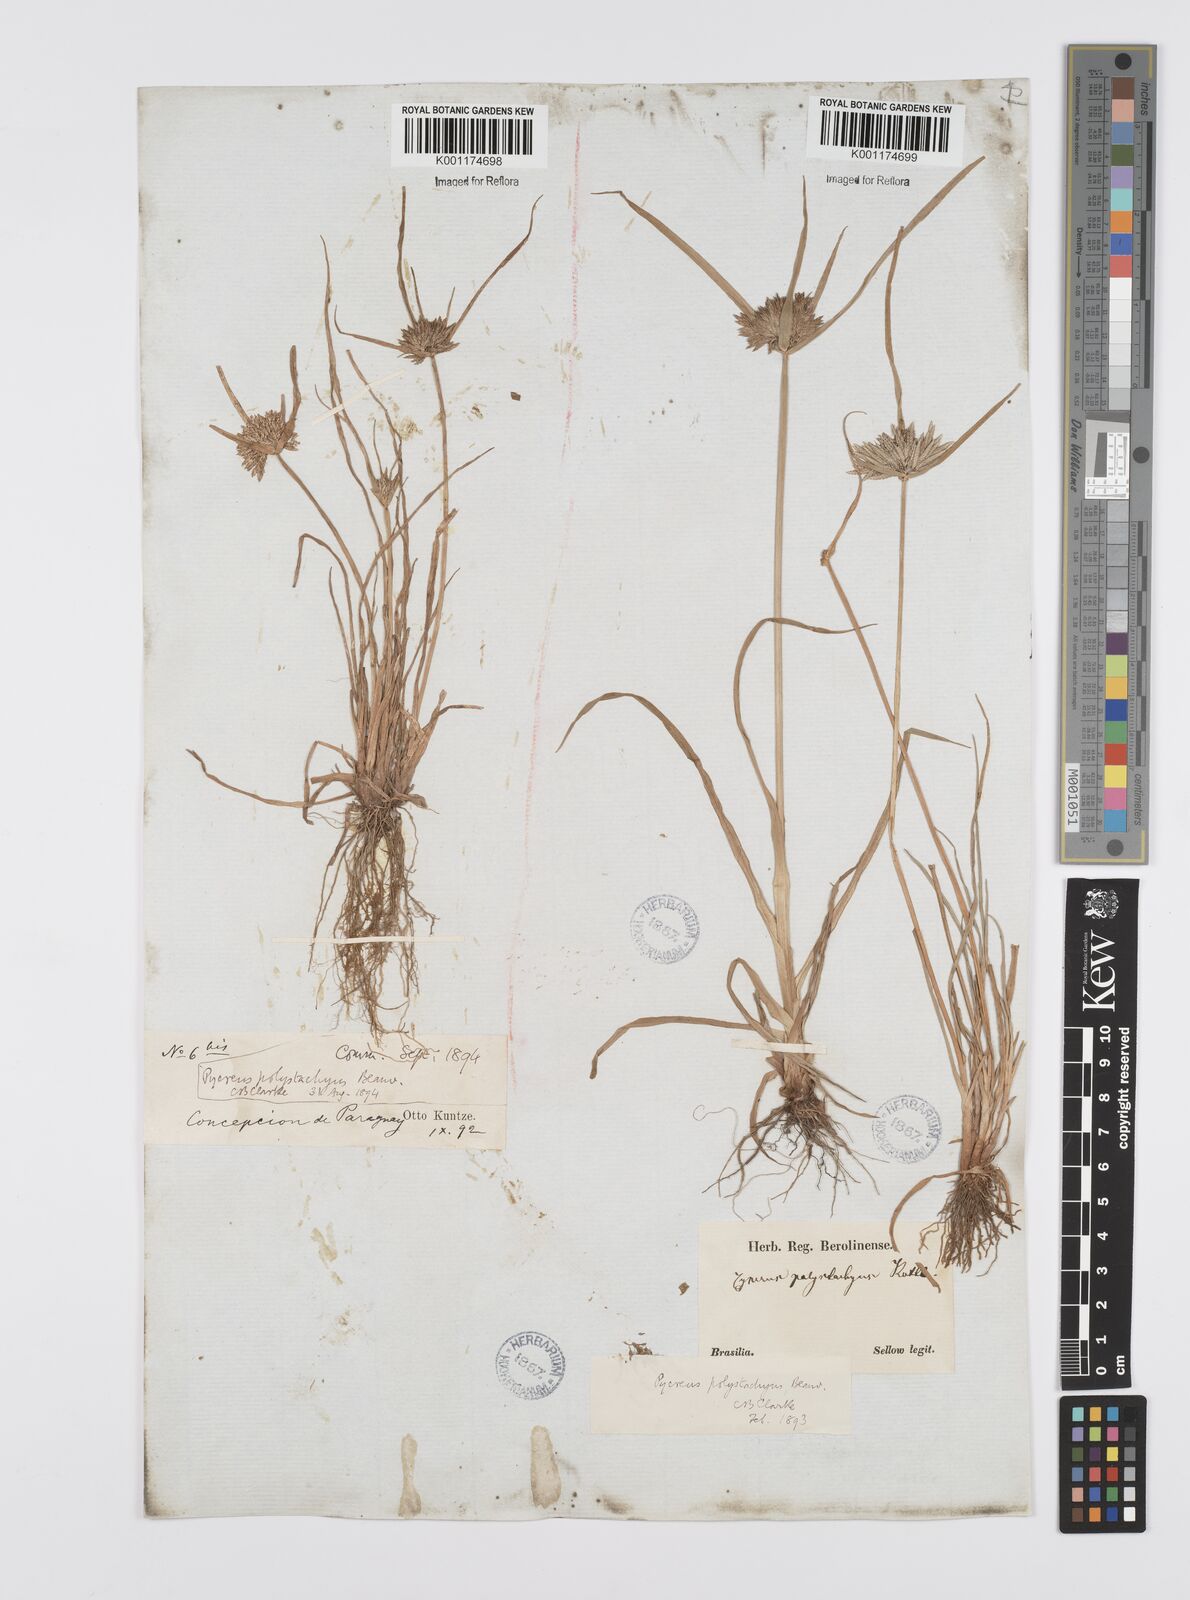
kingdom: Plantae
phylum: Tracheophyta
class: Liliopsida
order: Poales
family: Cyperaceae
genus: Cyperus
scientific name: Cyperus polystachyos
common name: Bunchy flat sedge
